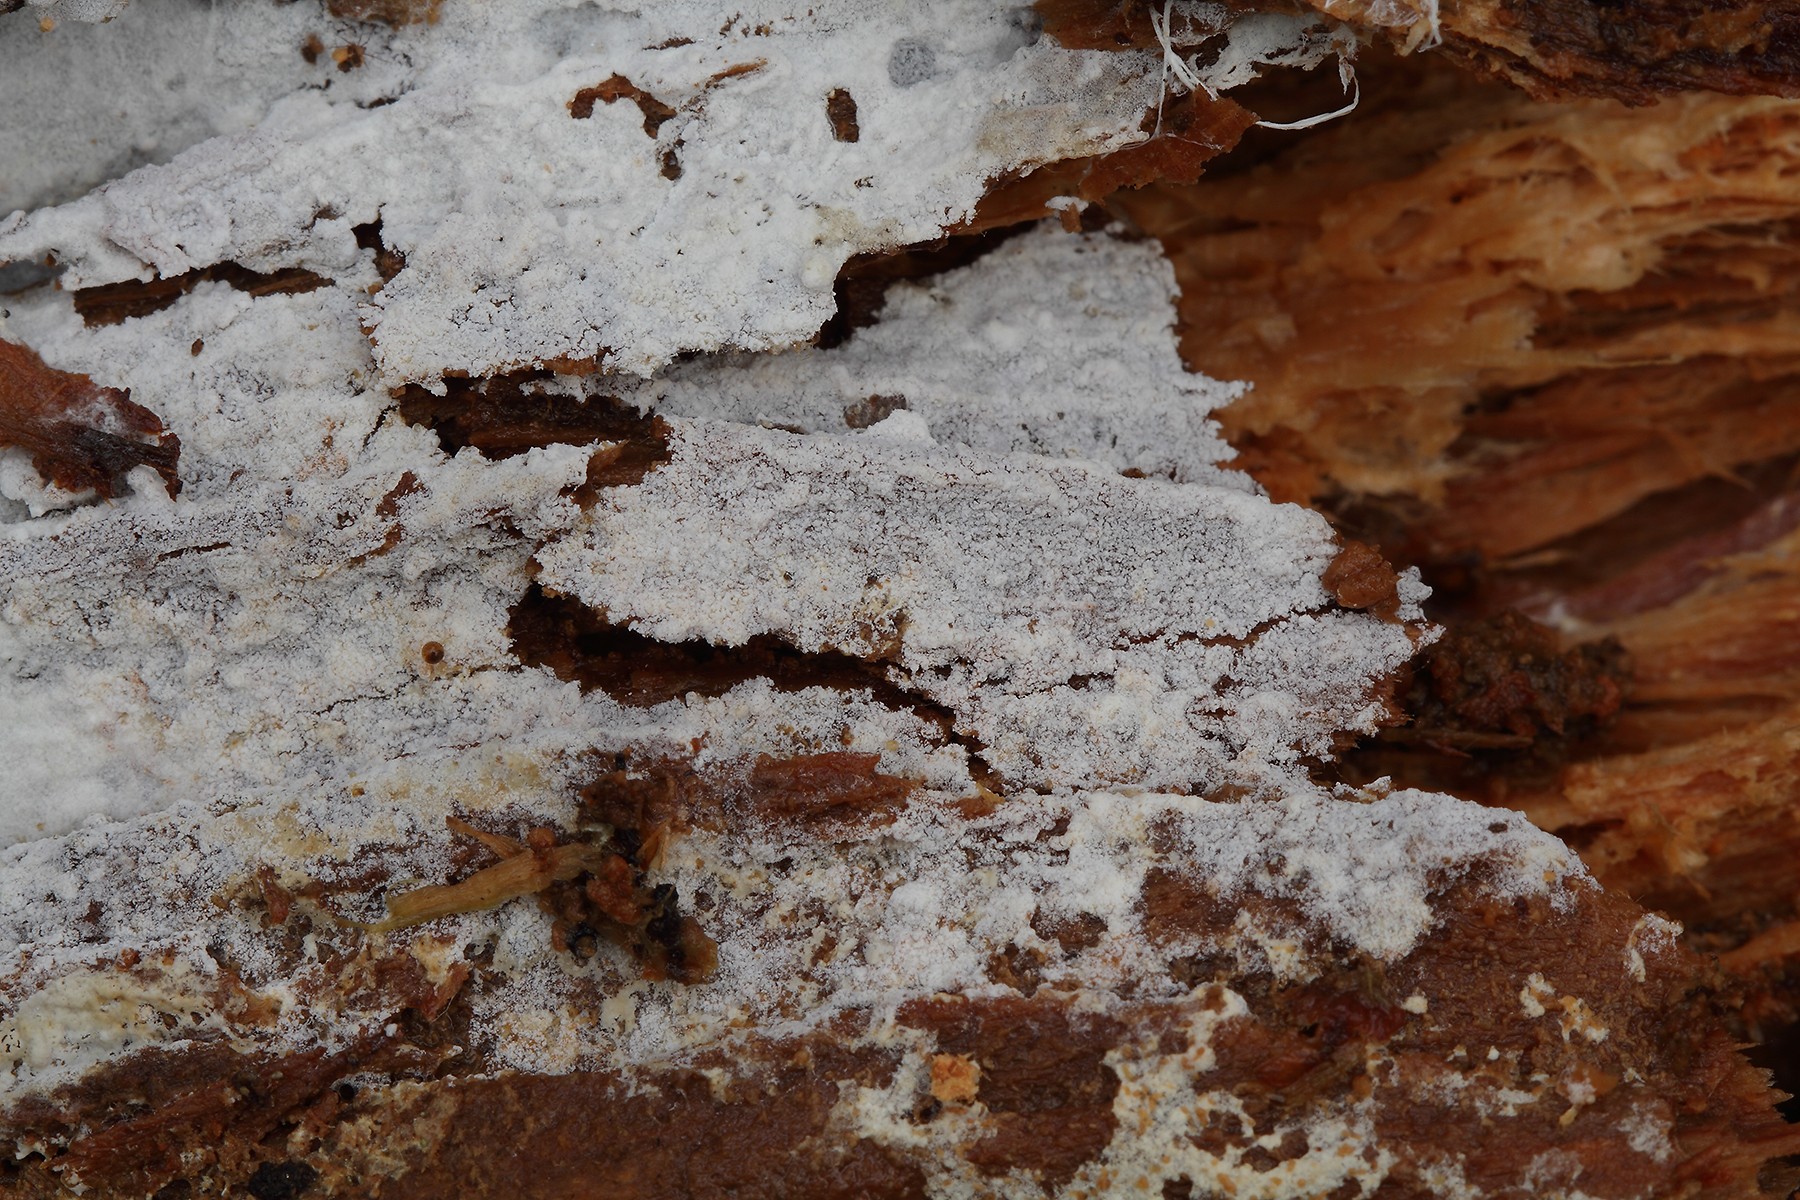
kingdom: Fungi
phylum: Basidiomycota
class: Agaricomycetes
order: Cantharellales
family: Hydnaceae
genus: Sistotrema
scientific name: Sistotrema resinicystidium
